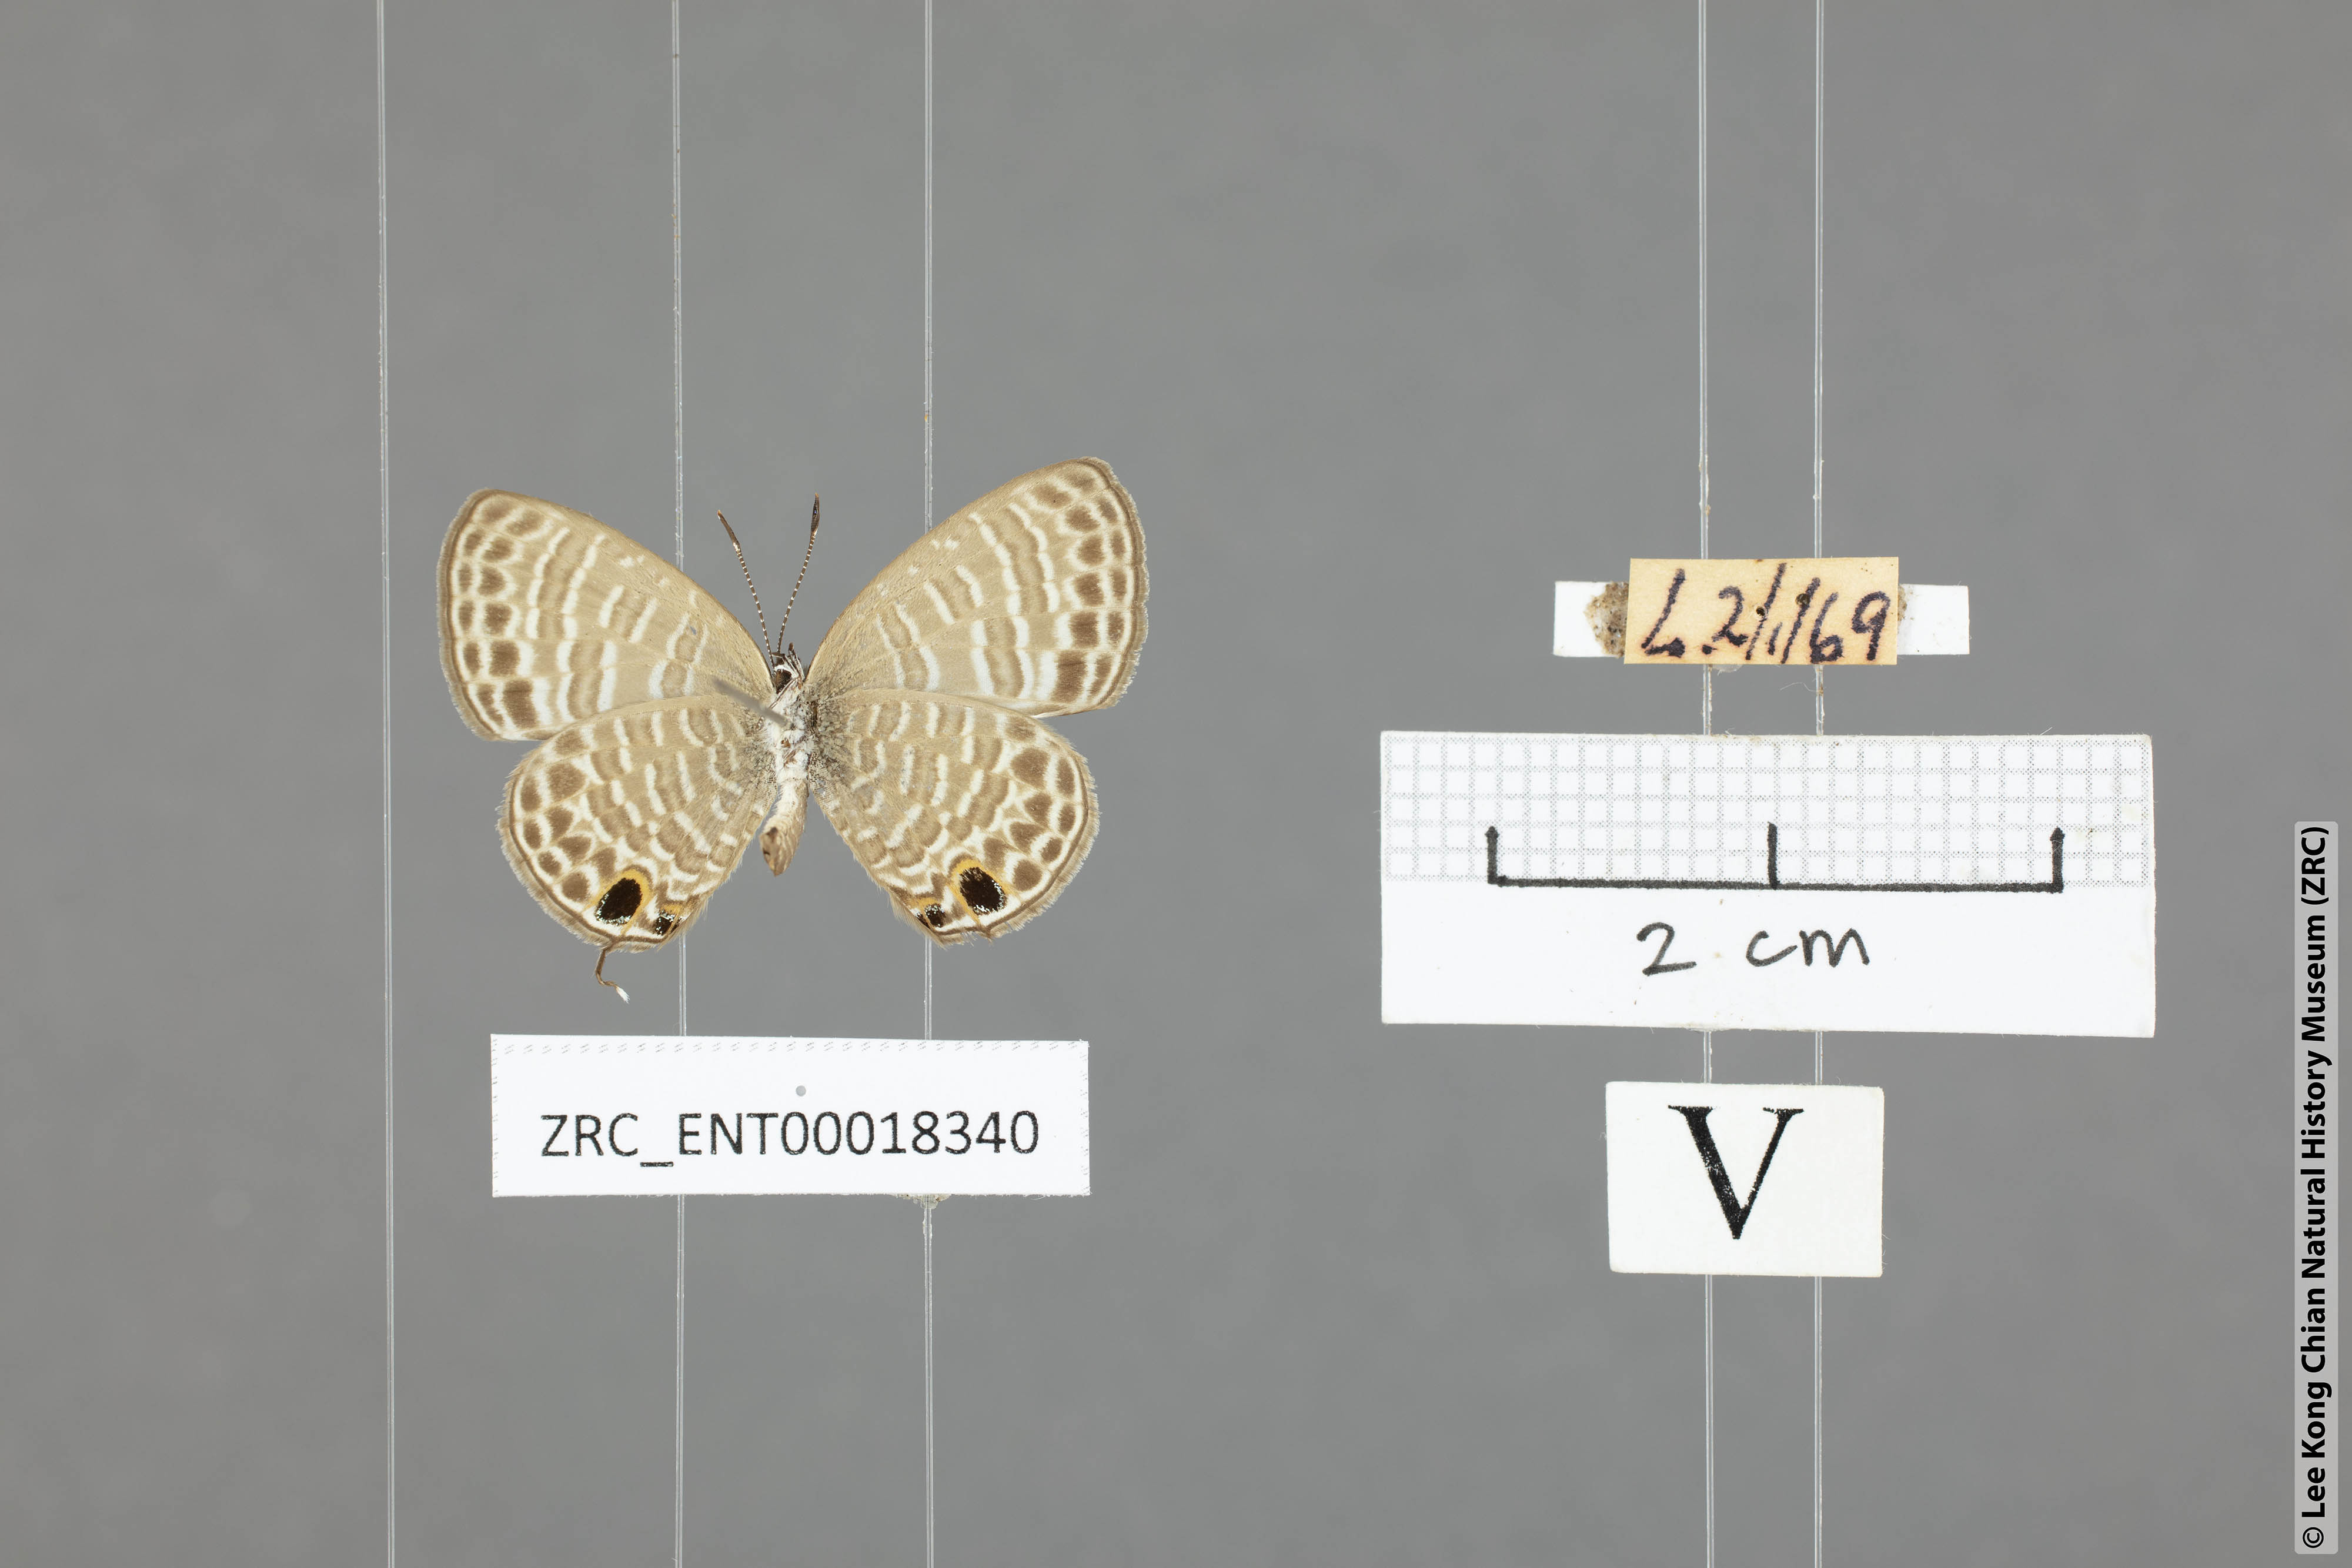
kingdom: Animalia
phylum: Arthropoda
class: Insecta
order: Lepidoptera
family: Lycaenidae
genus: Nacaduba
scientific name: Nacaduba calauria
